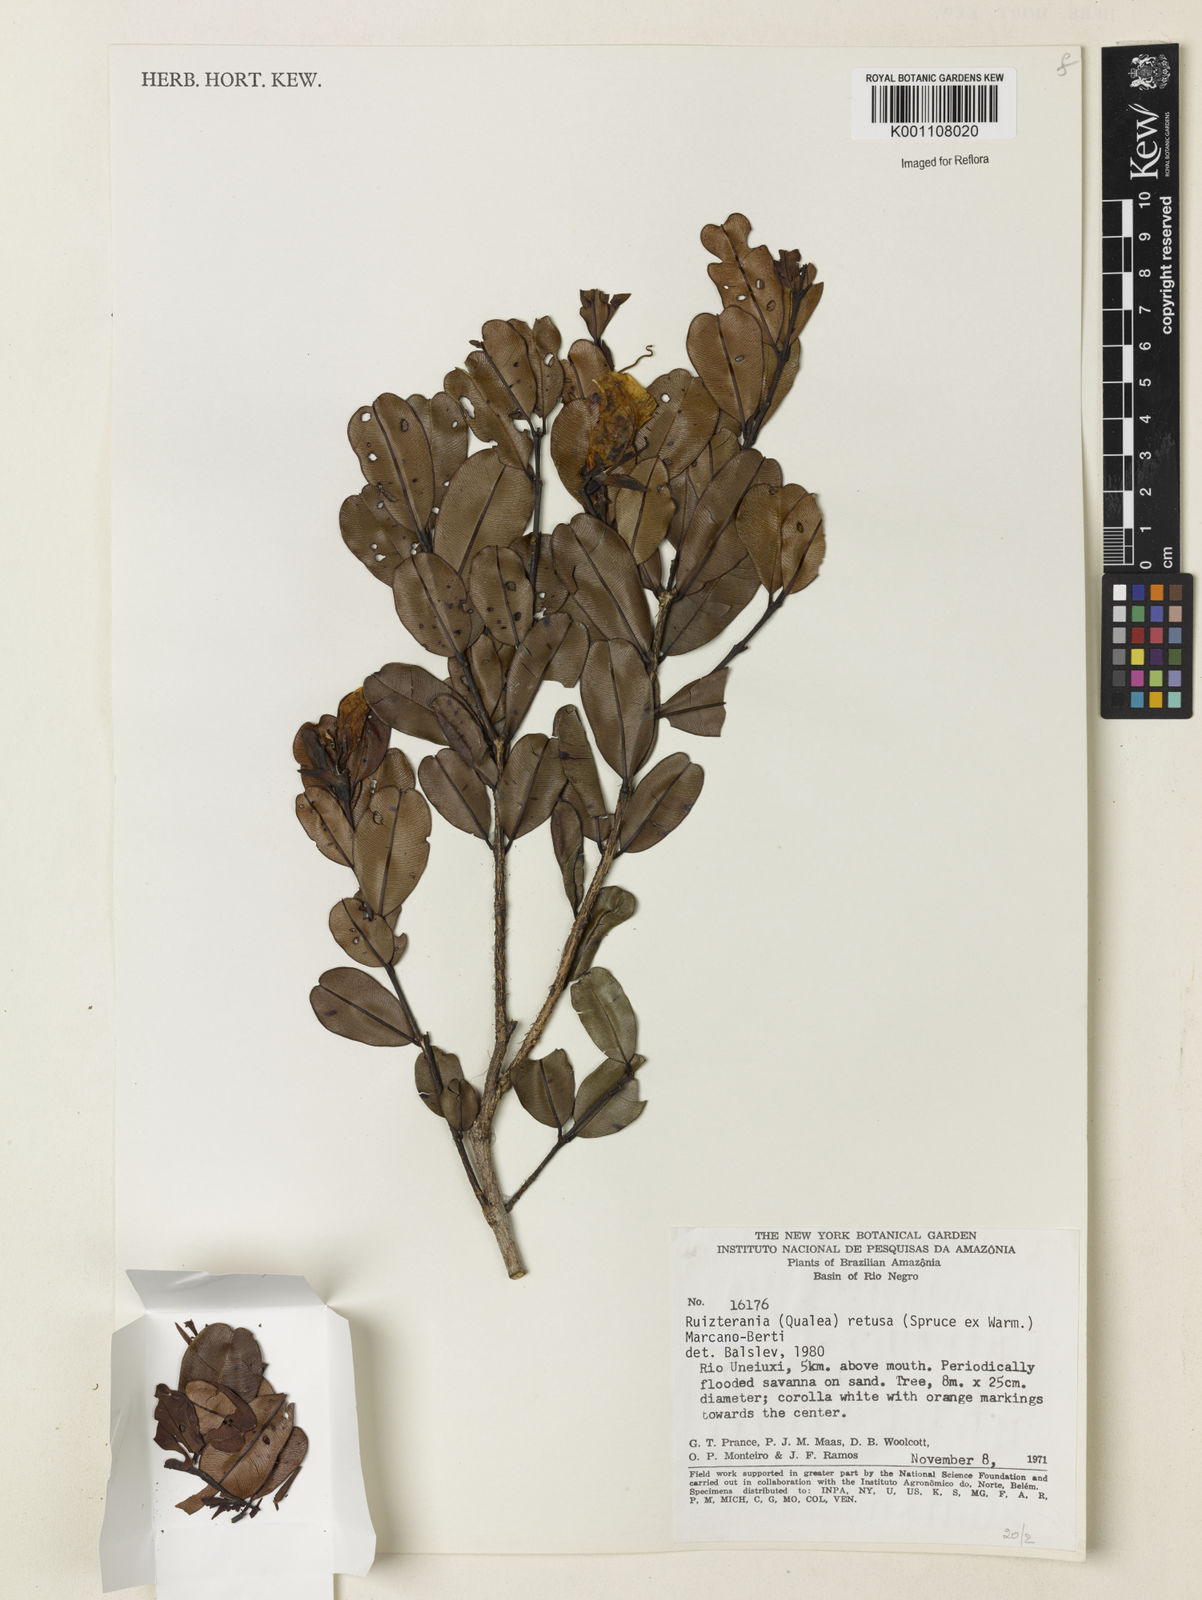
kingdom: Plantae
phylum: Tracheophyta
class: Magnoliopsida
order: Myrtales
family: Vochysiaceae
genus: Ruizterania
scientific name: Ruizterania retusa
